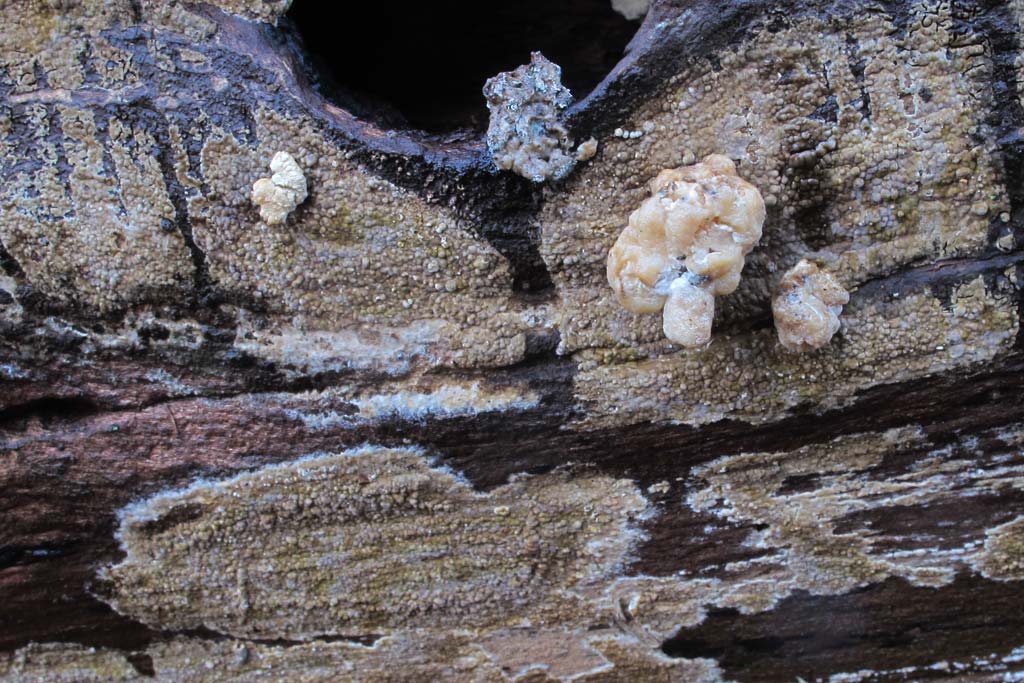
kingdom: Fungi
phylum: Basidiomycota
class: Agaricomycetes
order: Boletales
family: Coniophoraceae
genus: Coniophora
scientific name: Coniophora puteana
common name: gul tømmersvamp
